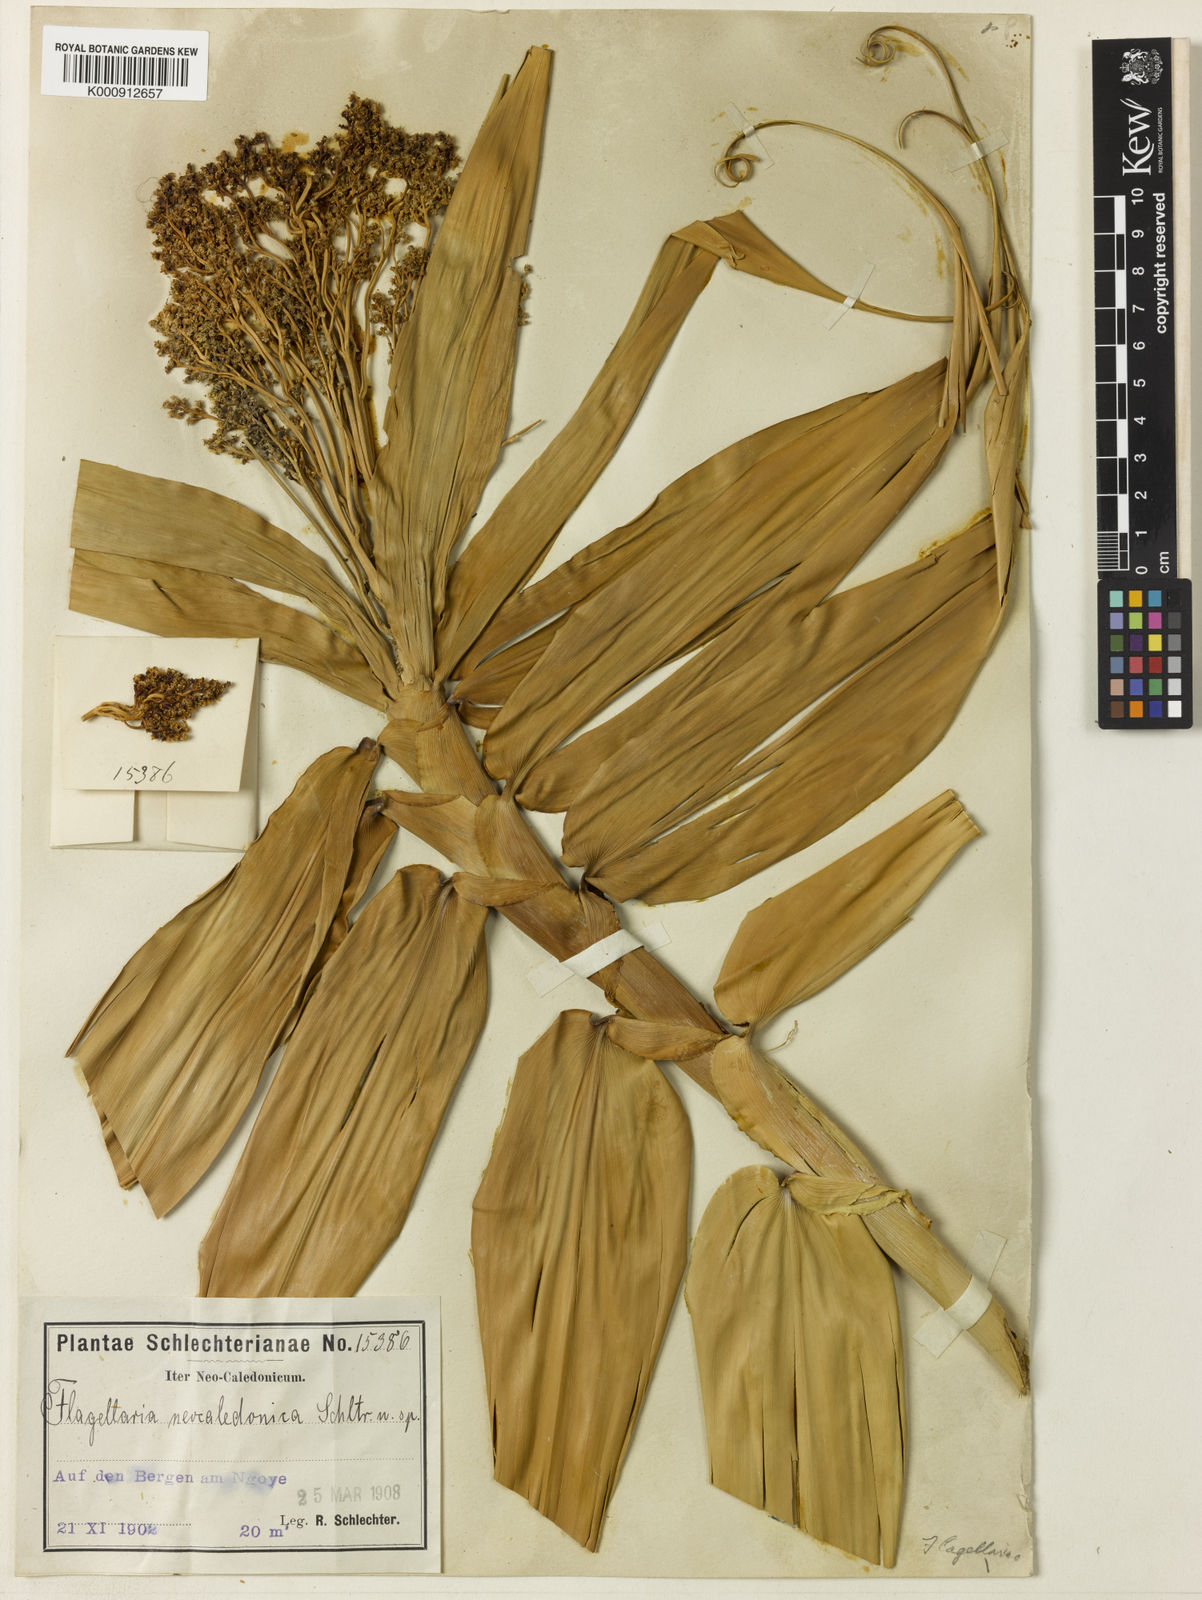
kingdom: Plantae
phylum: Tracheophyta
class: Liliopsida
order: Poales
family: Flagellariaceae
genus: Flagellaria
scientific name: Flagellaria neocaledonica
